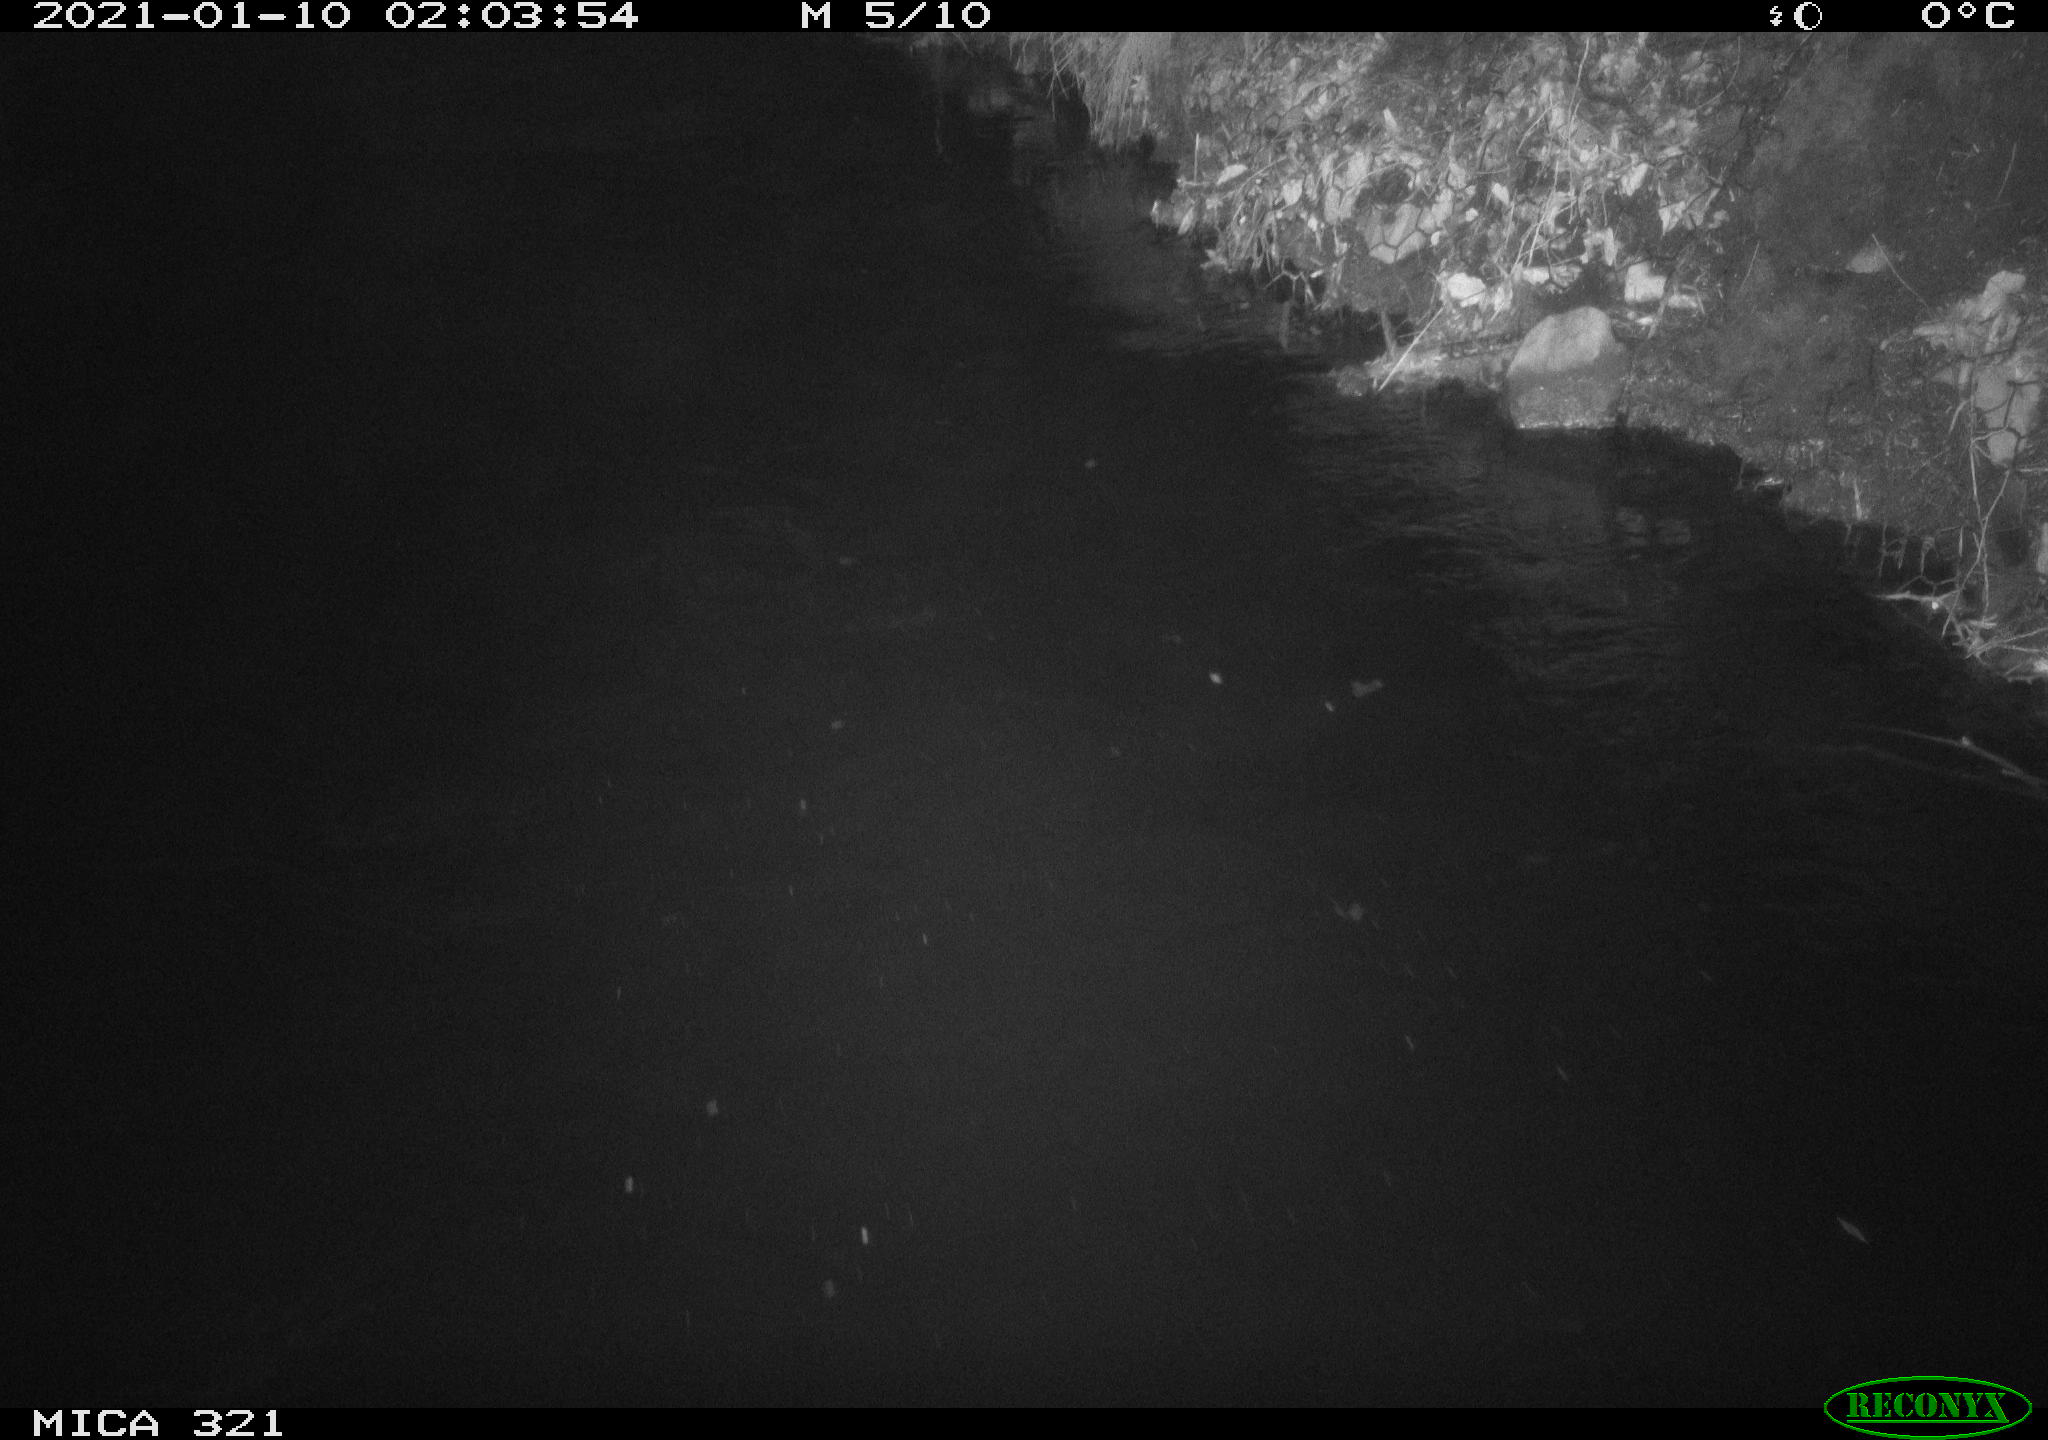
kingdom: Animalia
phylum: Chordata
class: Aves
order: Anseriformes
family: Anatidae
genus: Anas
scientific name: Anas platyrhynchos
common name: Mallard
